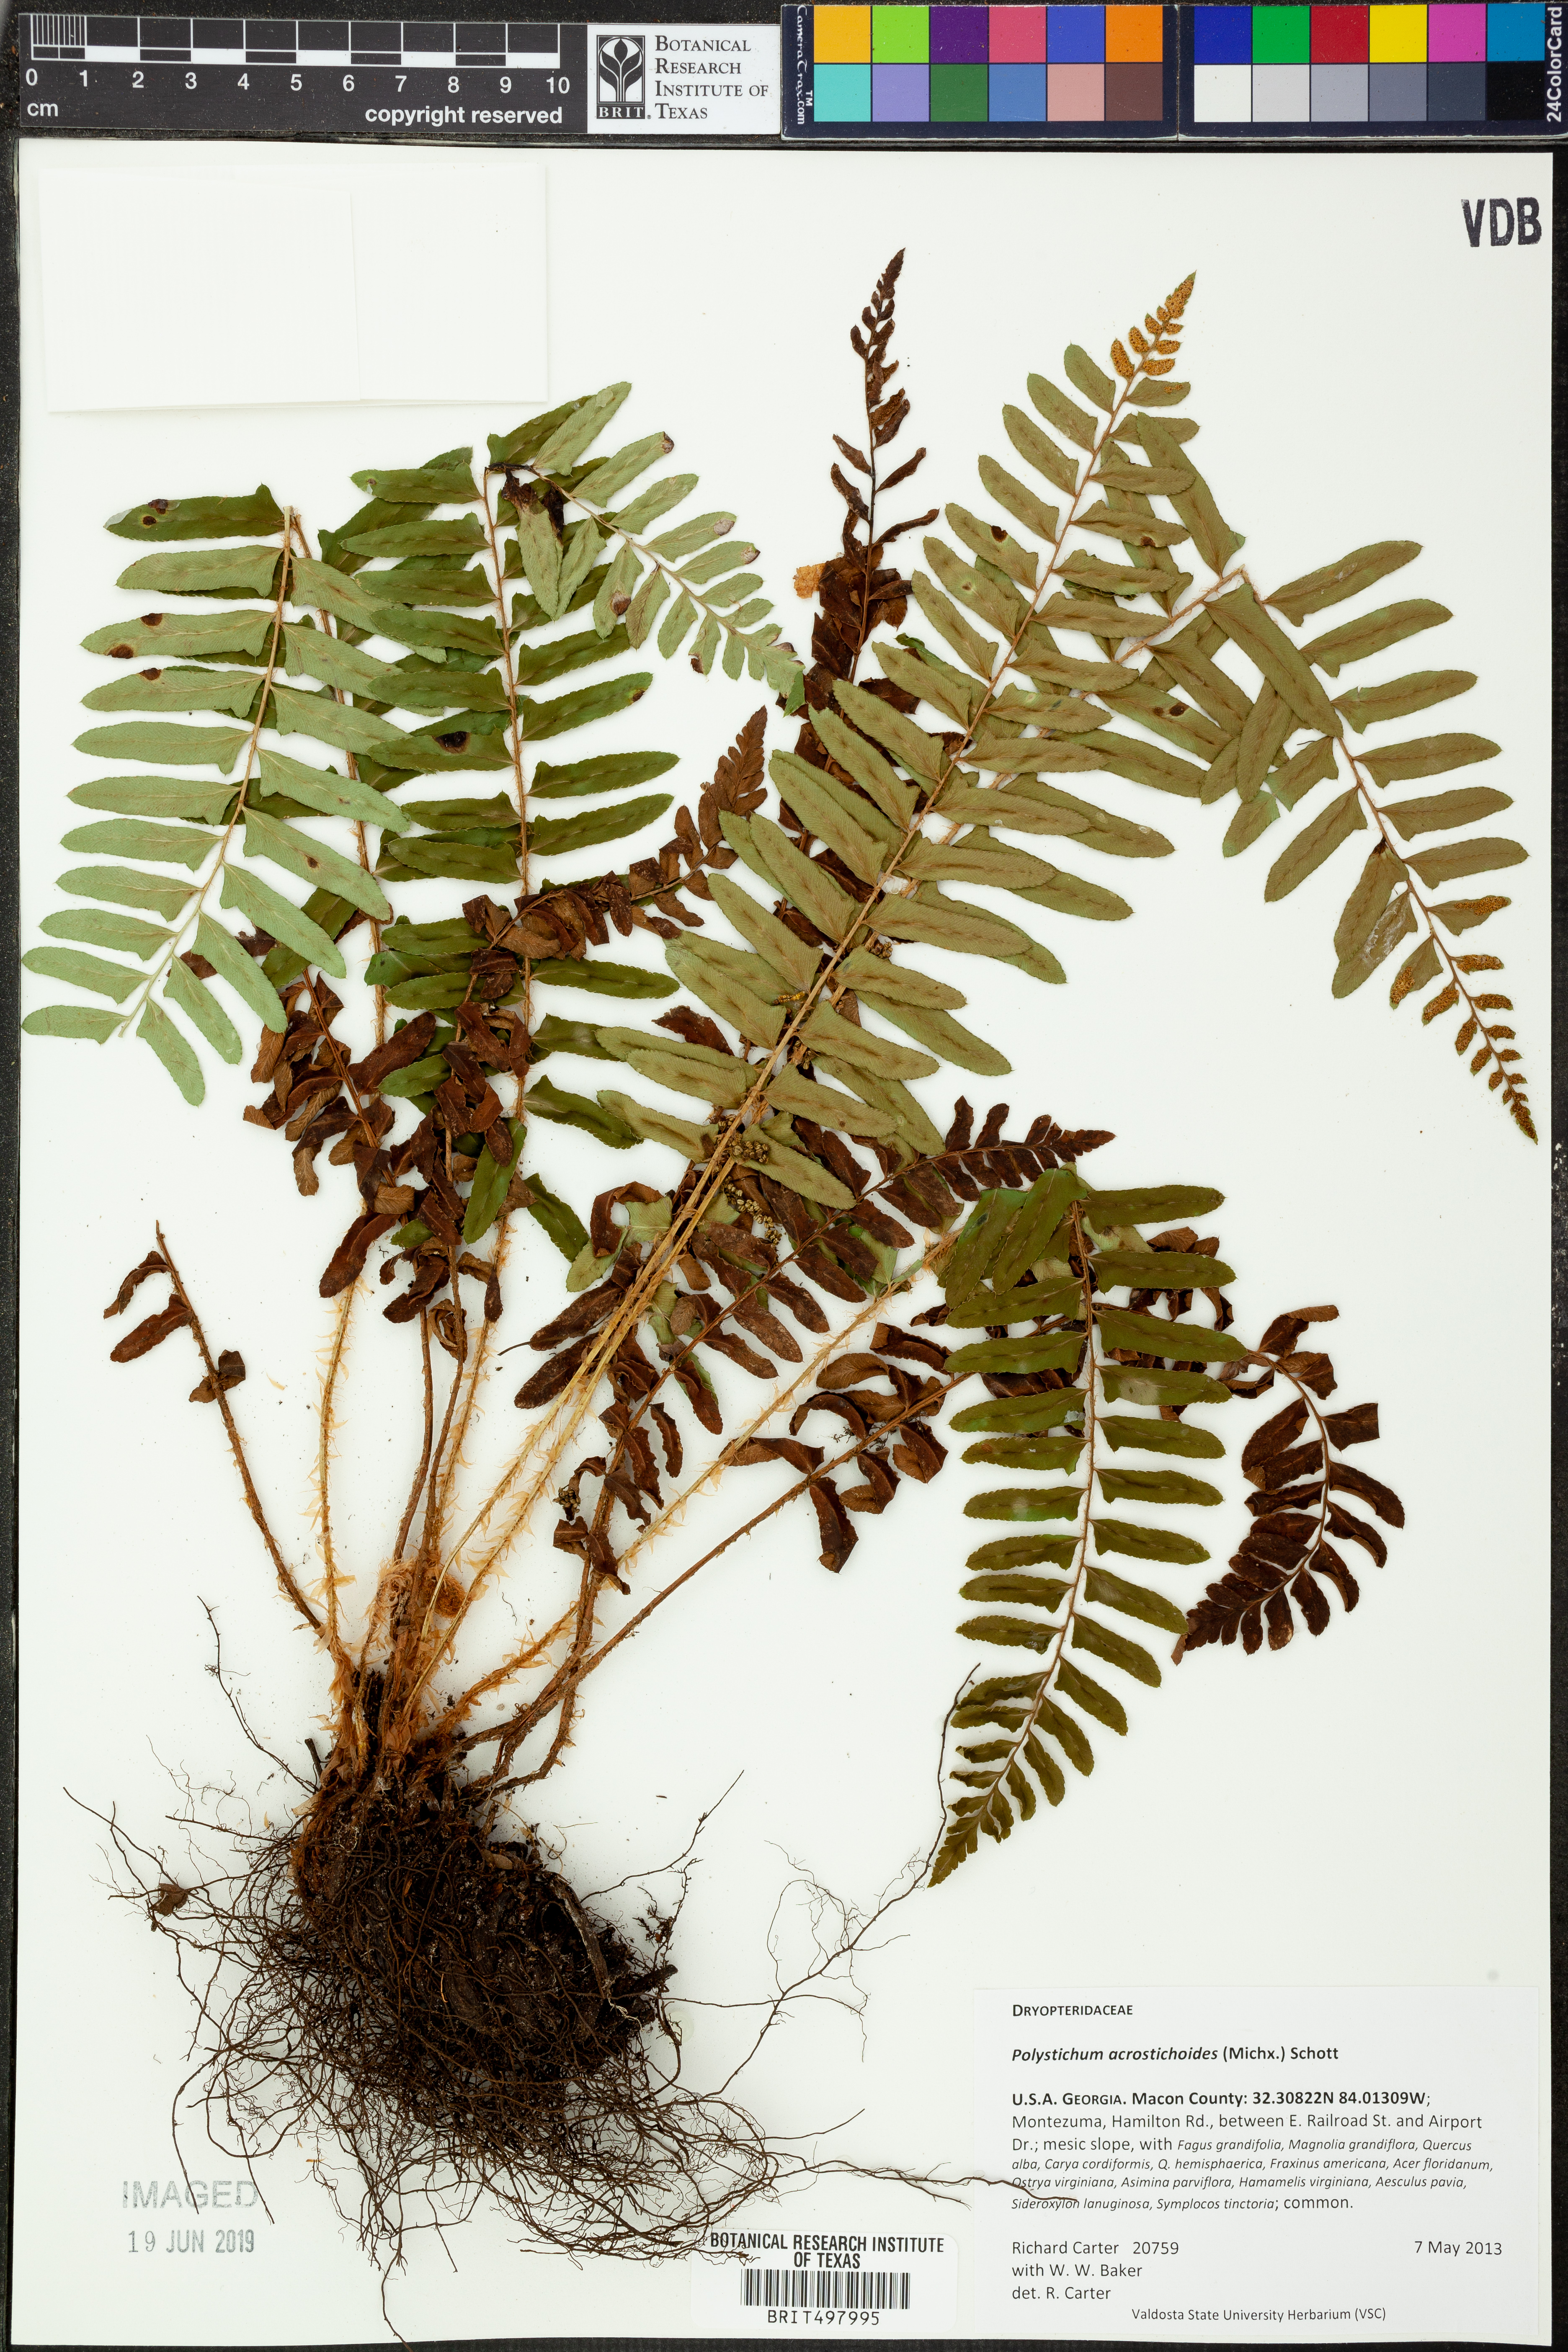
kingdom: Plantae
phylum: Tracheophyta
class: Polypodiopsida
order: Polypodiales
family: Dryopteridaceae
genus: Polystichum
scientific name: Polystichum acrostichoides
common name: Christmas fern
